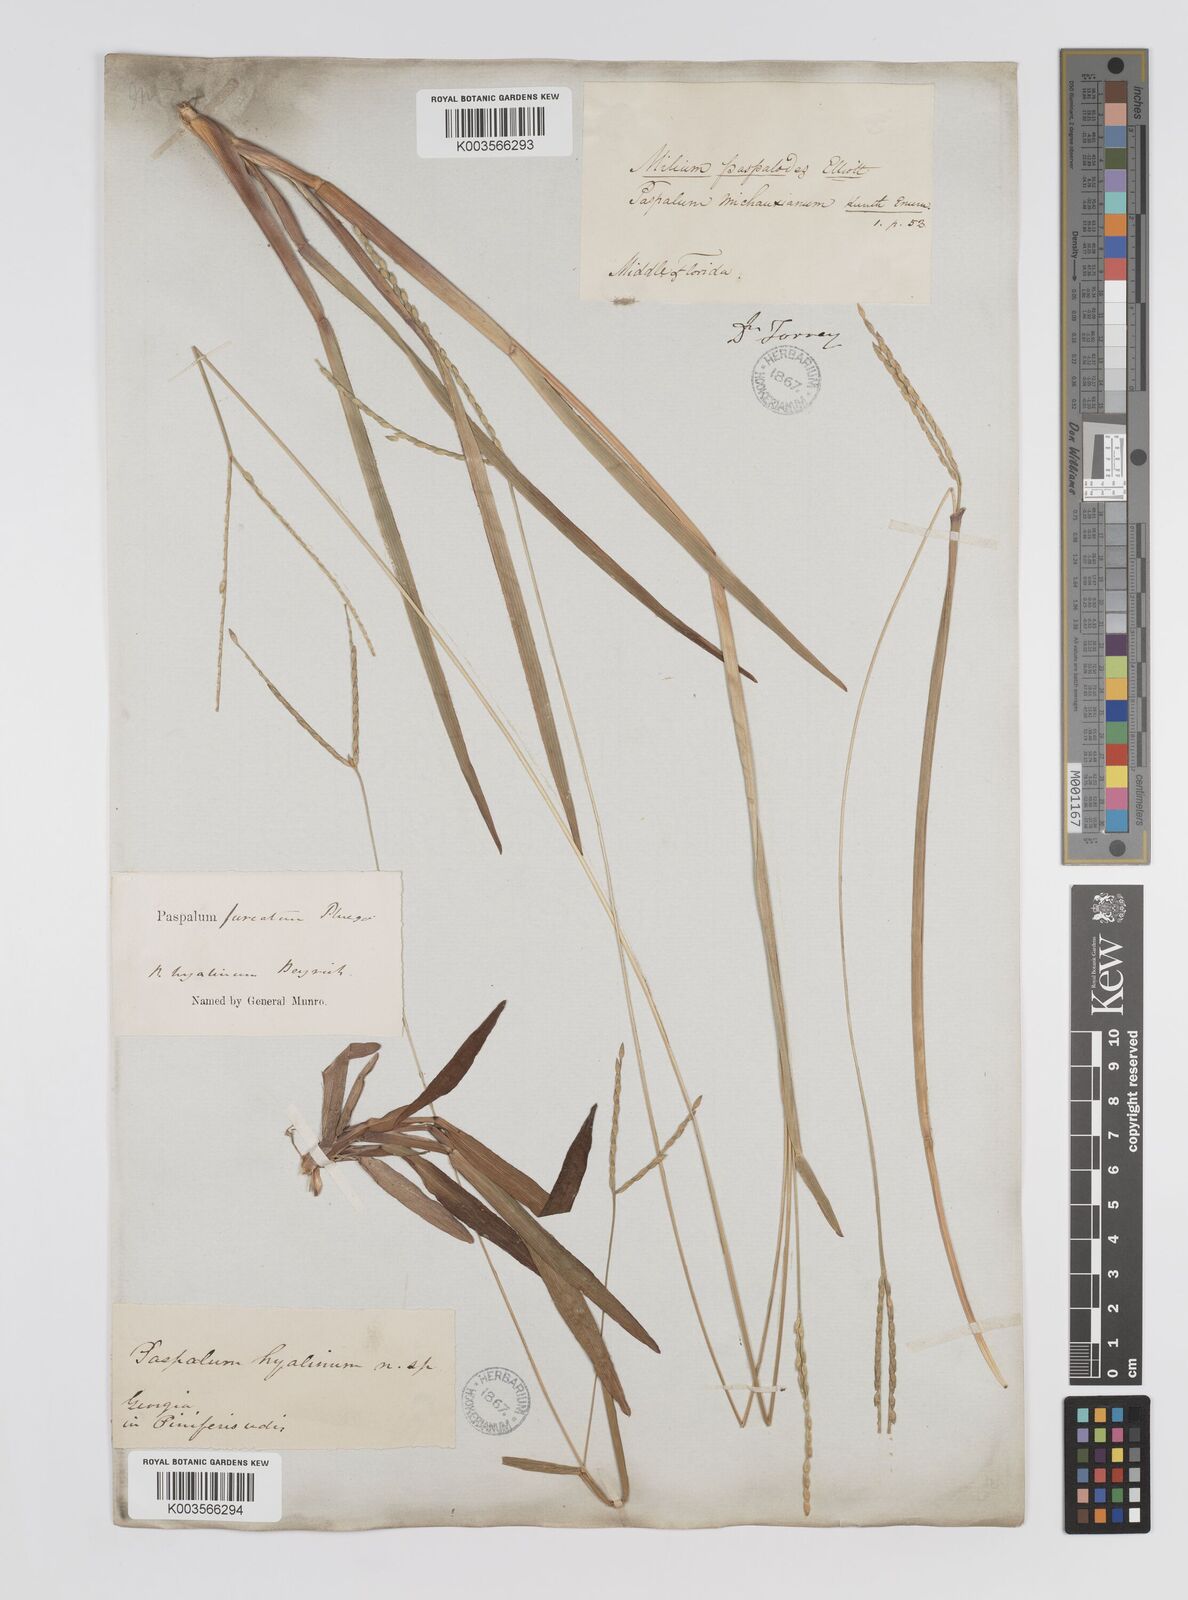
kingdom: Plantae
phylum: Tracheophyta
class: Liliopsida
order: Poales
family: Poaceae
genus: Axonopus
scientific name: Axonopus furcatus
